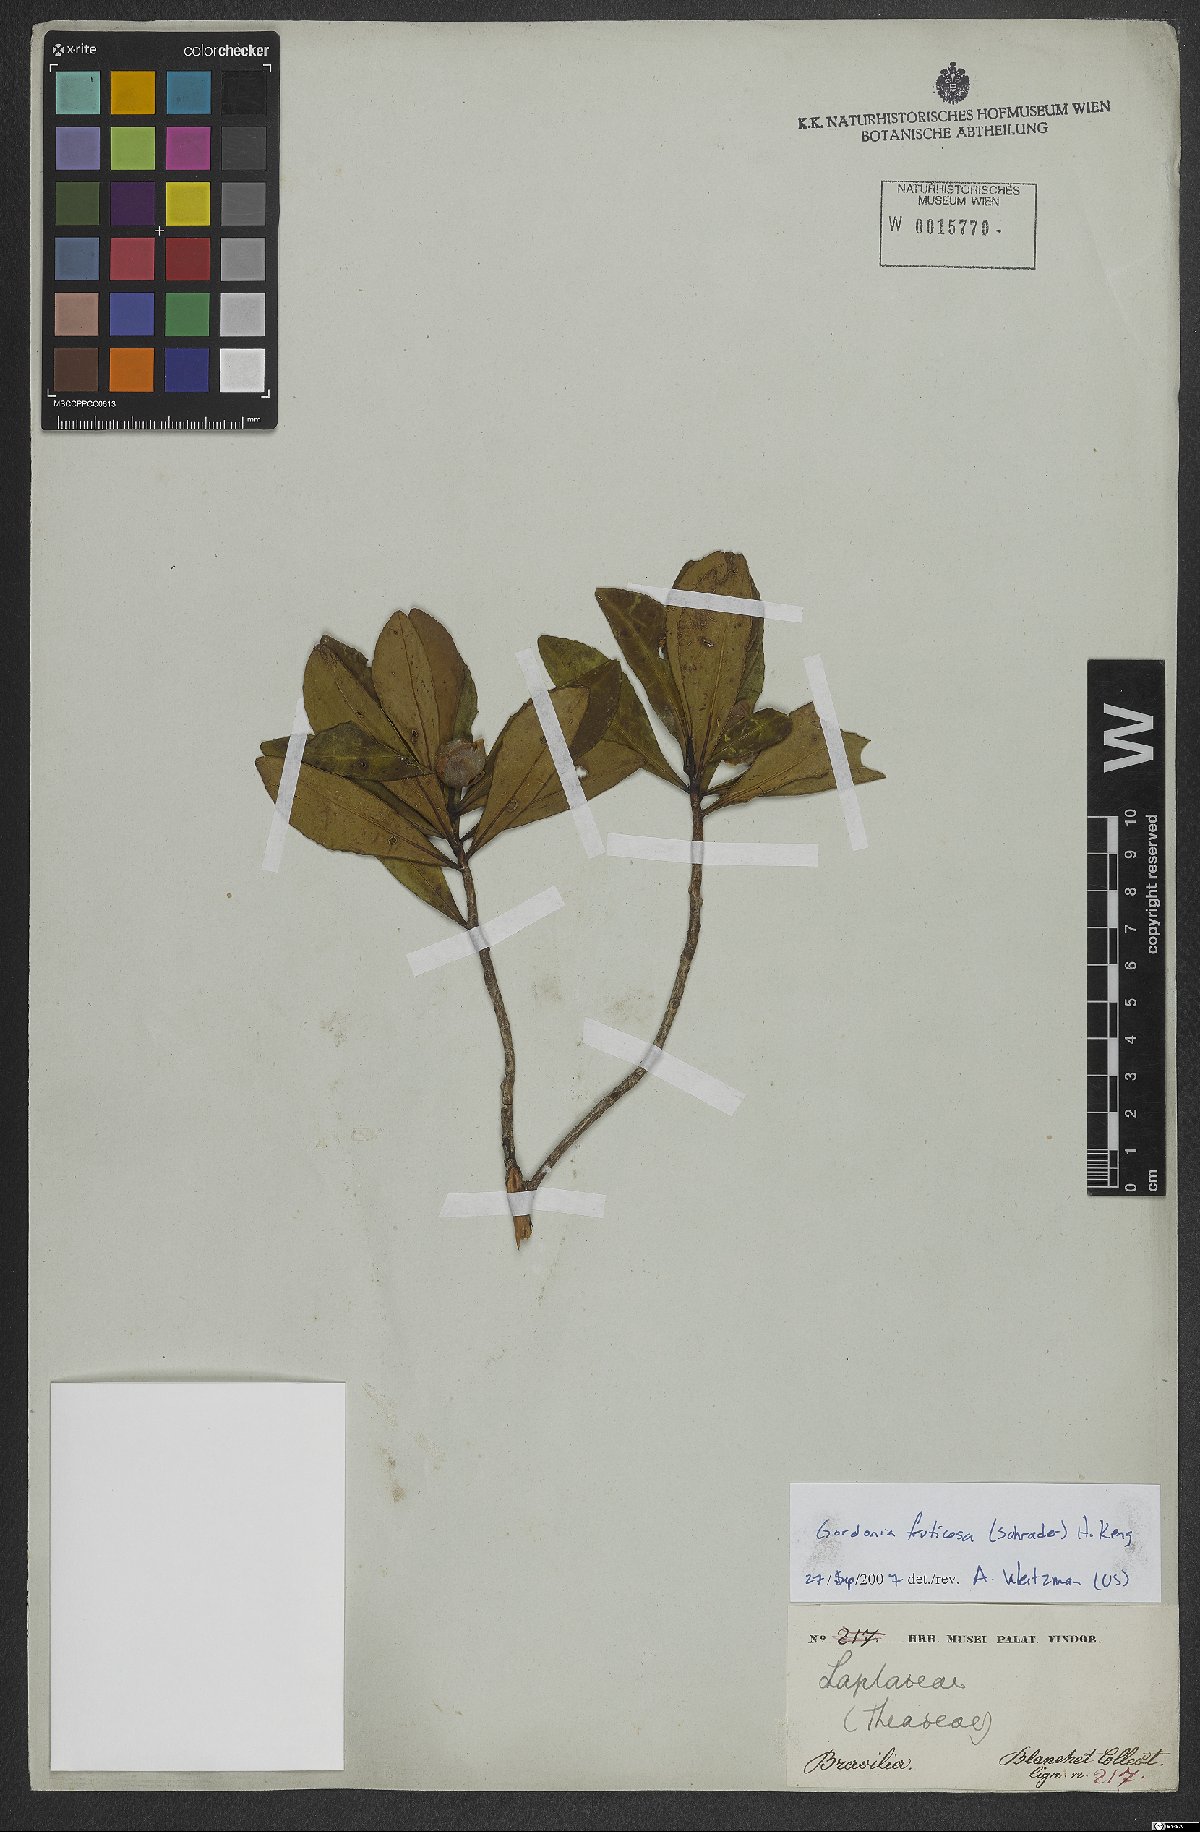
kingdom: Plantae
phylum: Tracheophyta
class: Magnoliopsida
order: Ericales
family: Theaceae
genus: Gordonia
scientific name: Gordonia fruticosa
